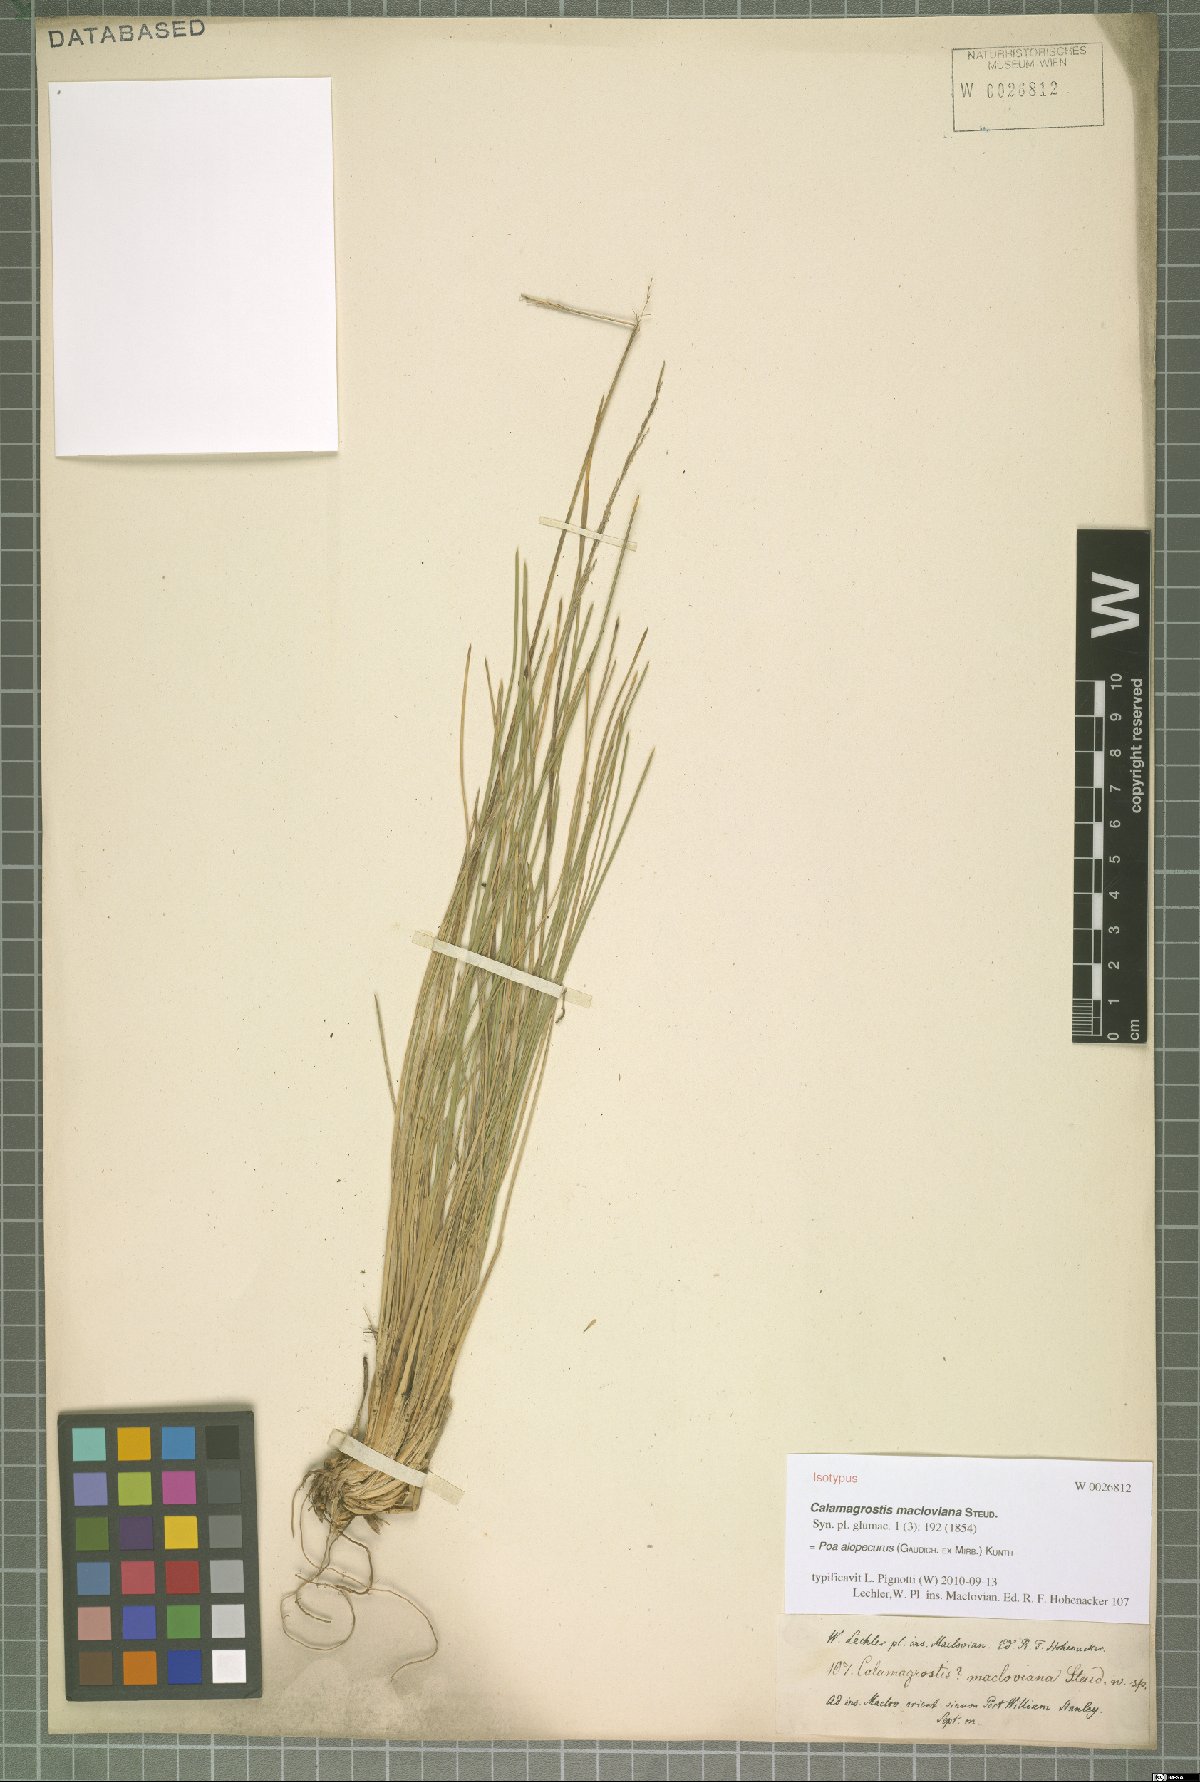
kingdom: Plantae
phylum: Tracheophyta
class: Liliopsida
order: Poales
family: Poaceae
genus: Poa
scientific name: Poa alopecurus
